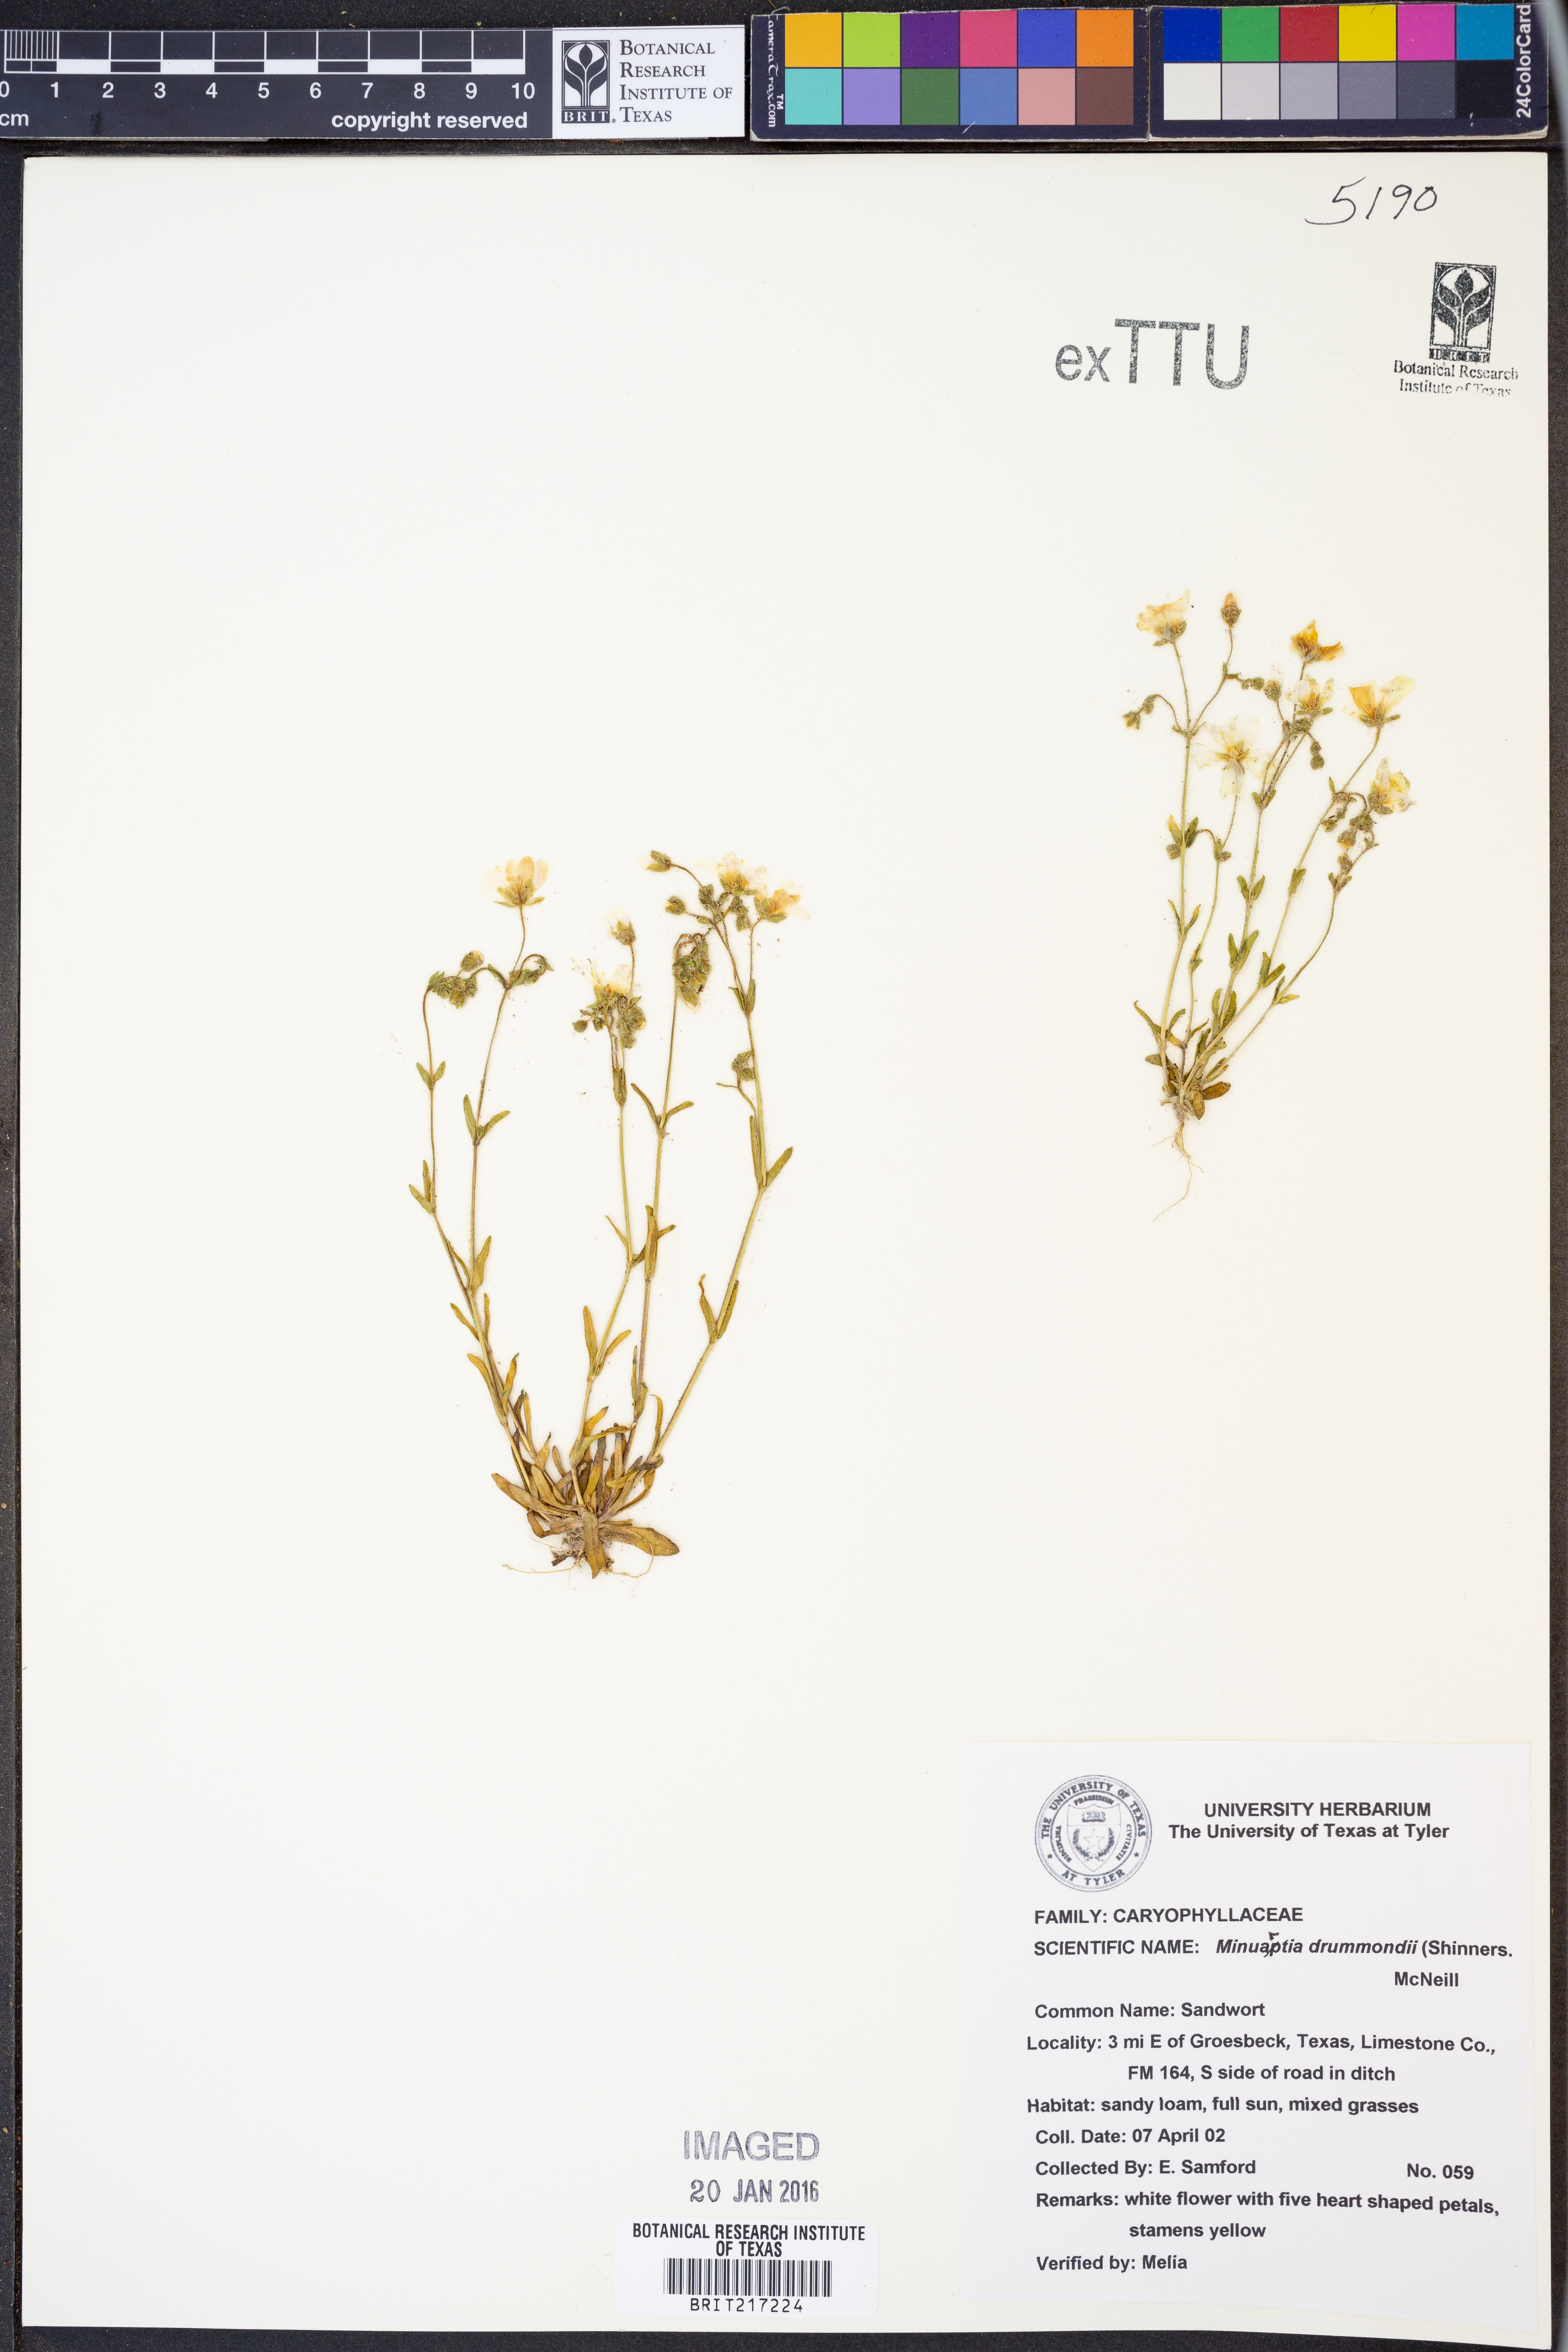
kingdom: Plantae
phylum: Tracheophyta
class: Magnoliopsida
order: Caryophyllales
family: Caryophyllaceae
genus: Geocarpon
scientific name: Geocarpon nuttallii
